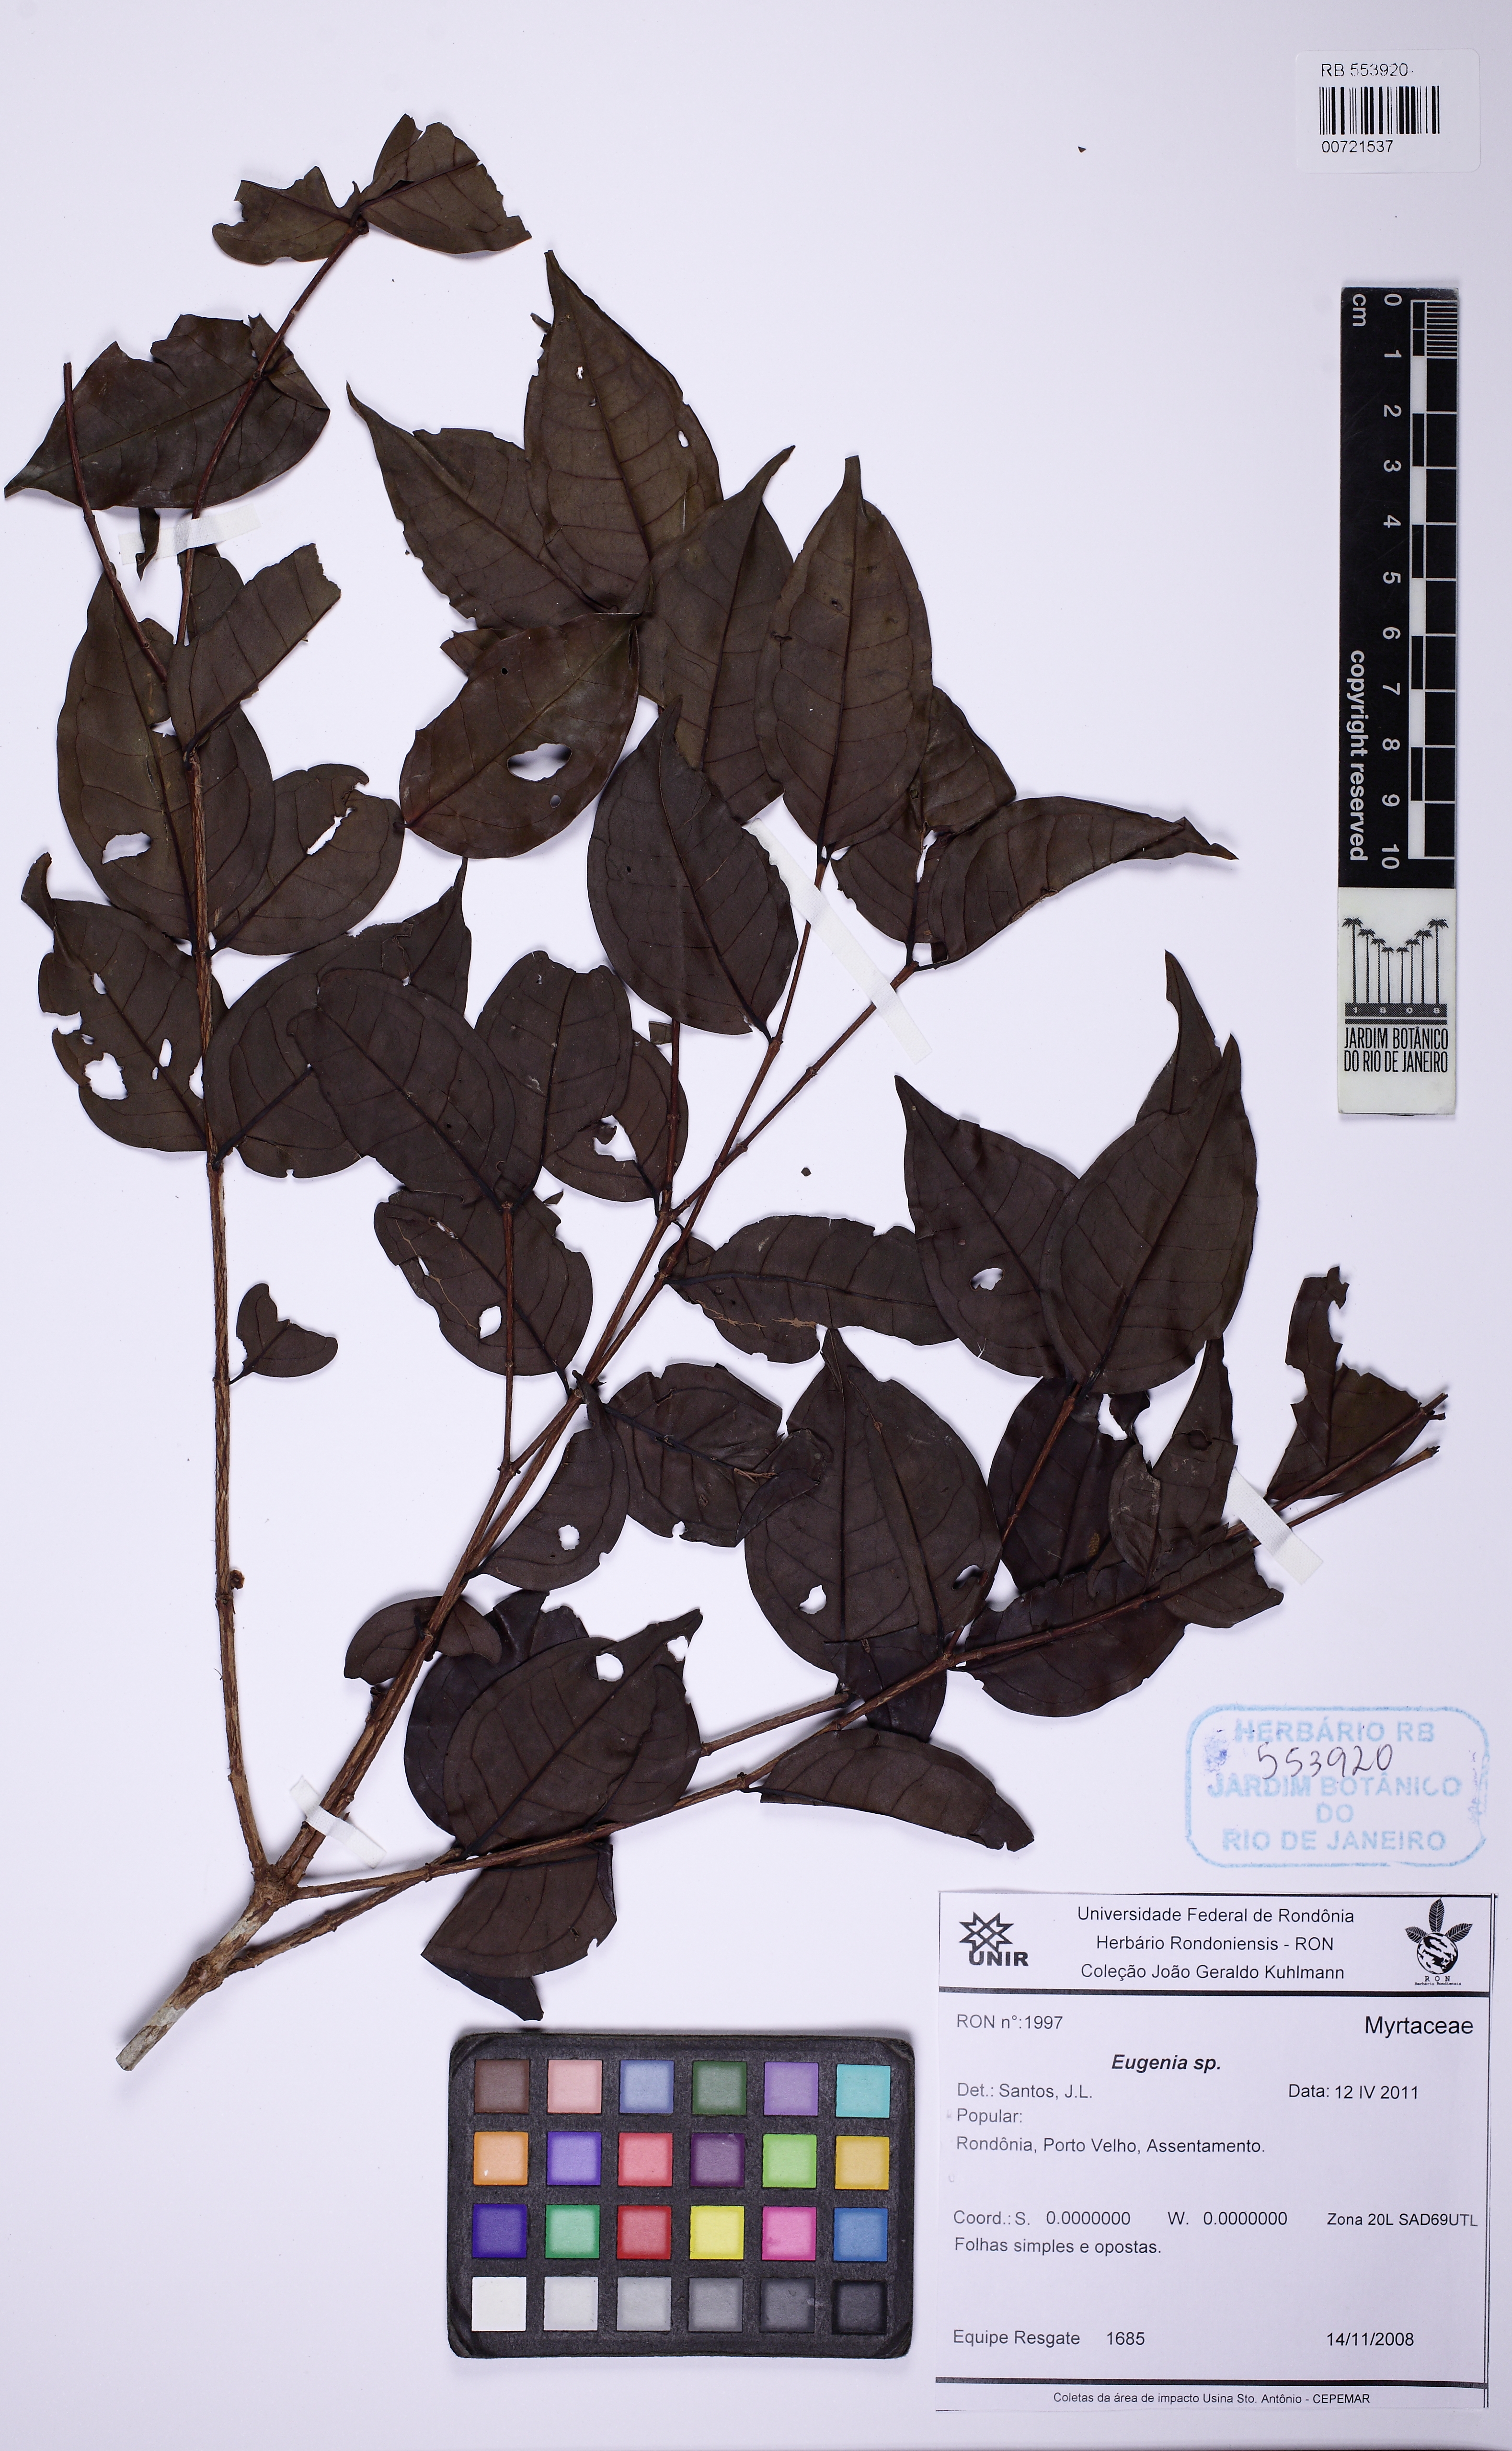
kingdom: Plantae
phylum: Tracheophyta
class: Magnoliopsida
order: Myrtales
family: Melastomataceae
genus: Mouriri
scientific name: Mouriri sagotiana
